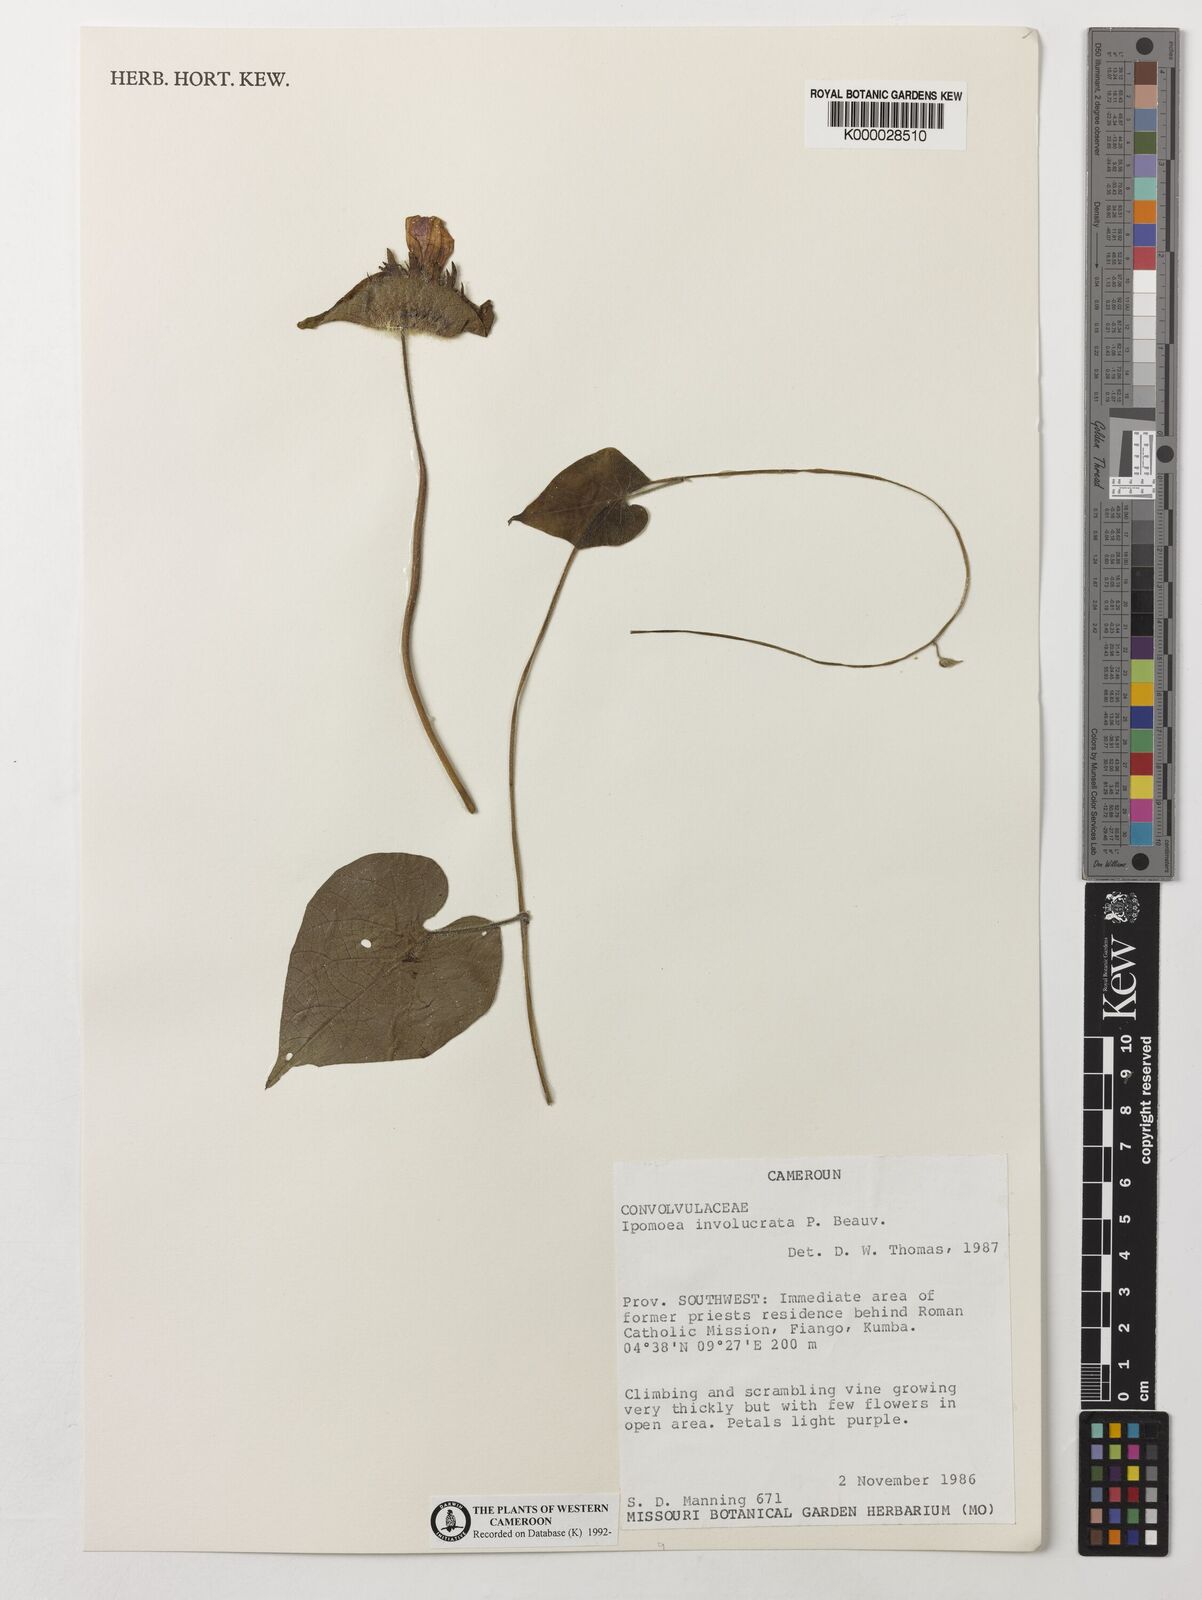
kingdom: Plantae
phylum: Tracheophyta
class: Magnoliopsida
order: Solanales
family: Convolvulaceae
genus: Ipomoea
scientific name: Ipomoea involucrata
